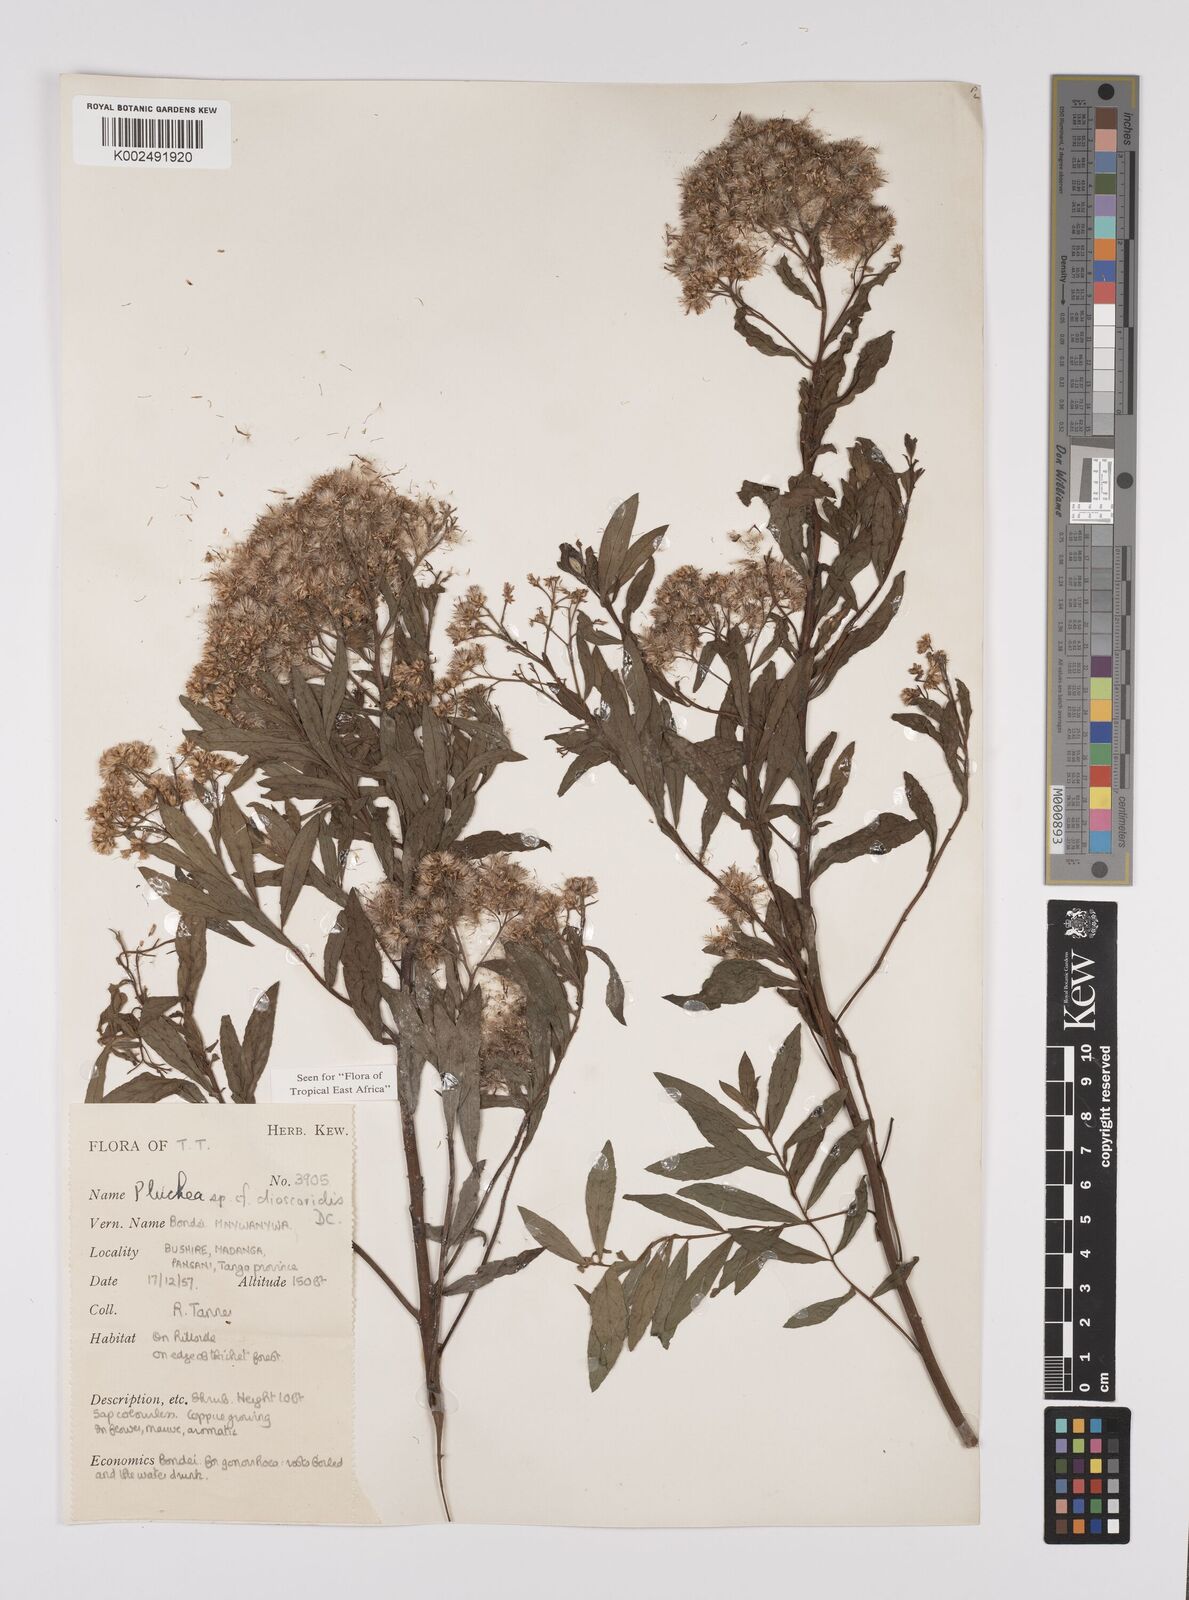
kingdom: Plantae
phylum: Tracheophyta
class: Magnoliopsida
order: Asterales
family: Asteraceae
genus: Pluchea
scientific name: Pluchea dioscoridis
